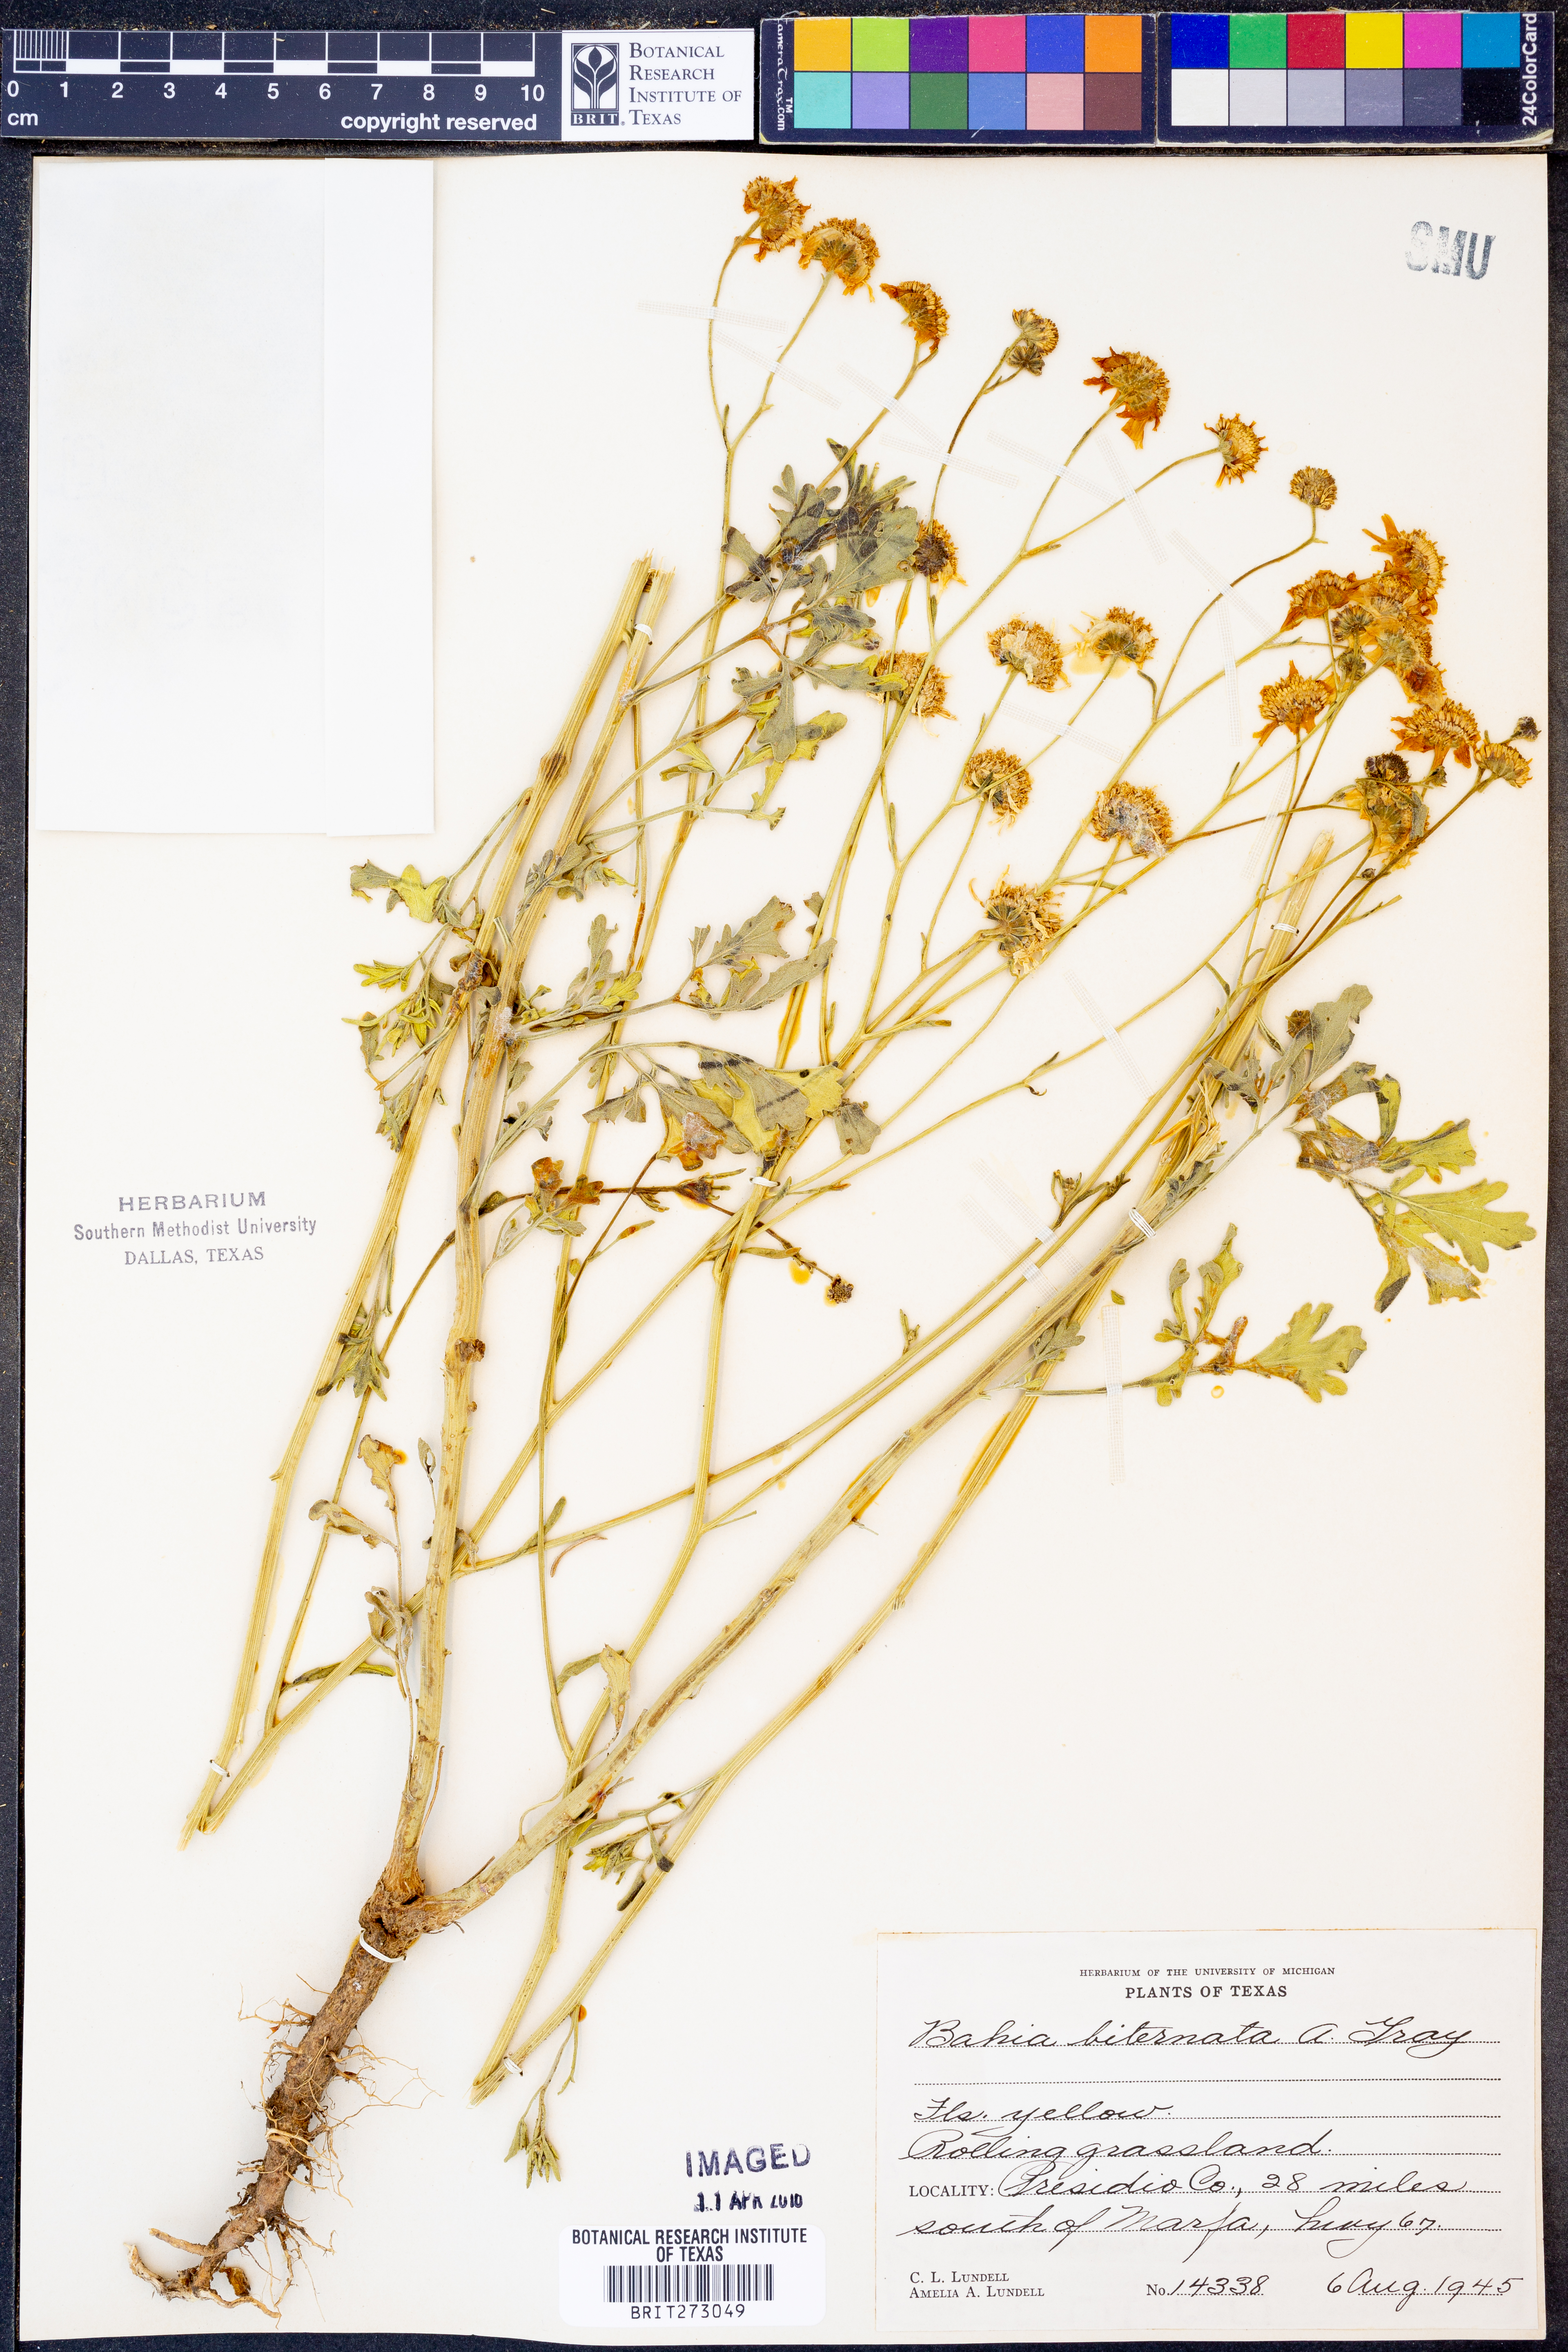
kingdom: Plantae
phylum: Tracheophyta
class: Magnoliopsida
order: Asterales
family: Asteraceae
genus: Hymenothrix
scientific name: Hymenothrix biternata
